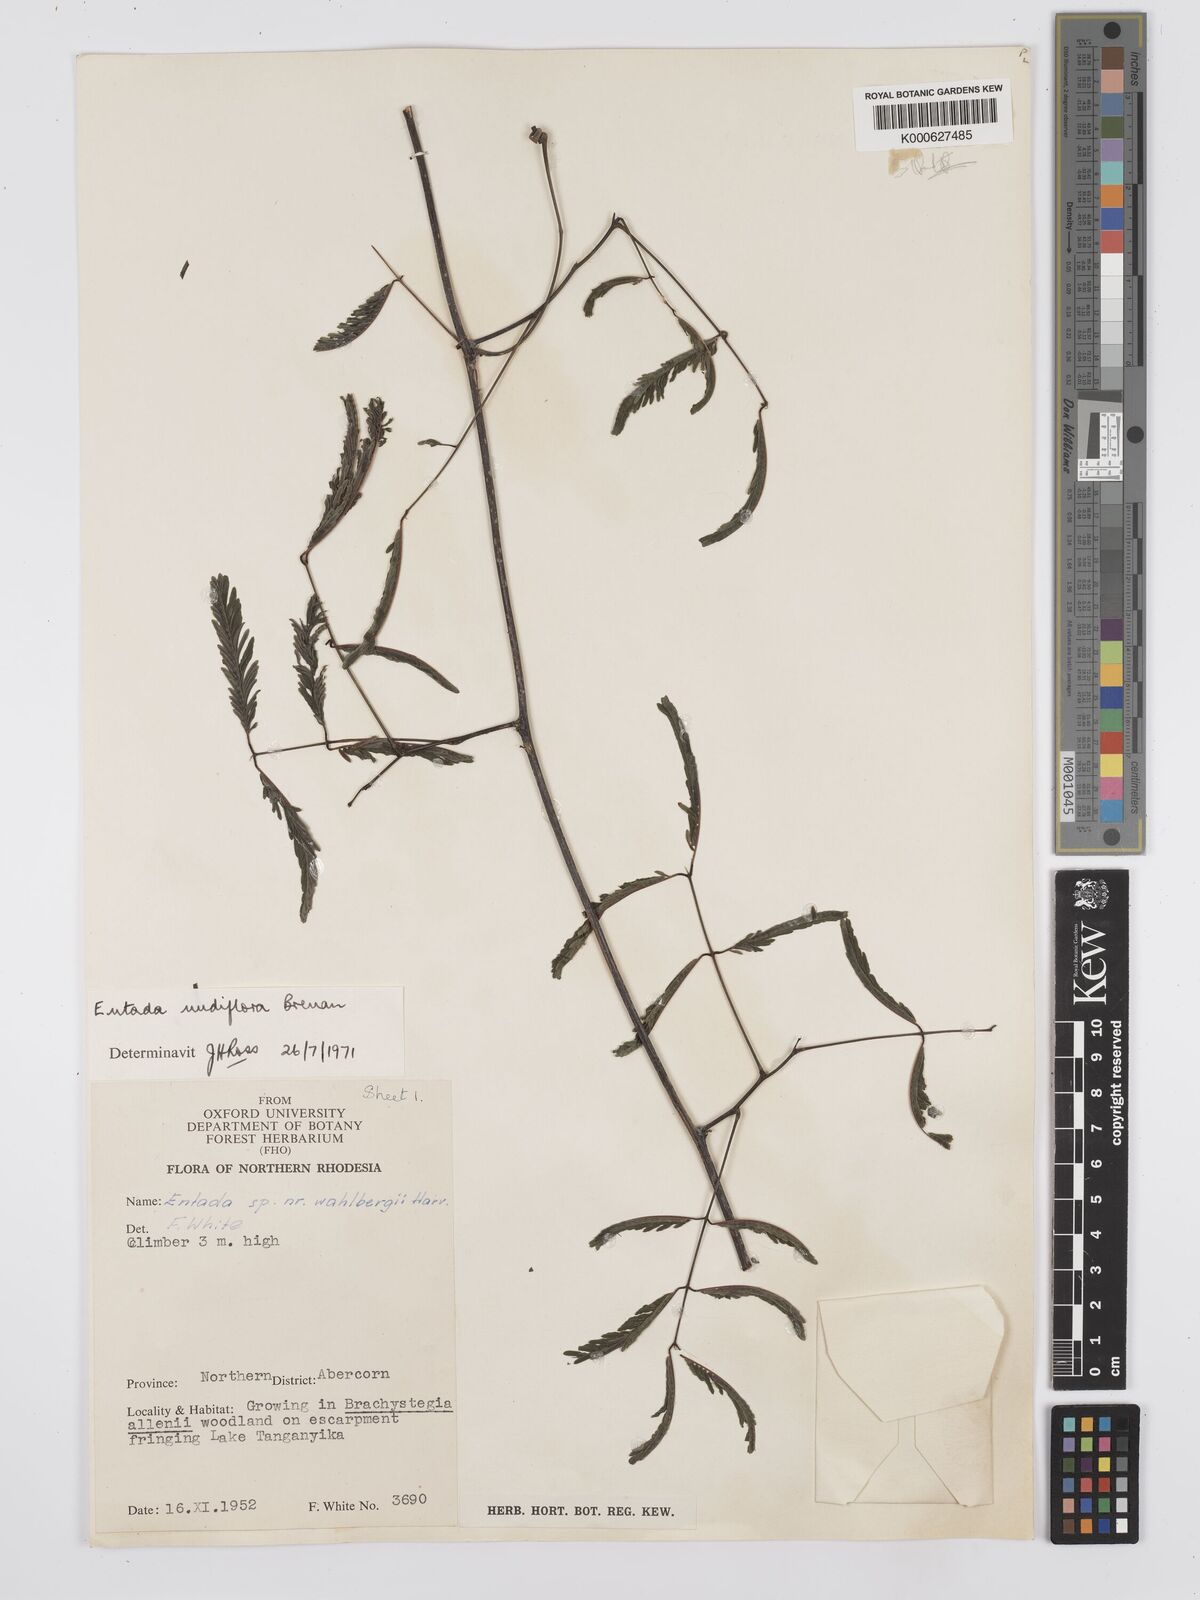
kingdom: Plantae
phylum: Tracheophyta
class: Magnoliopsida
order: Fabales
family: Fabaceae
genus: Entada
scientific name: Entada nudiflora
